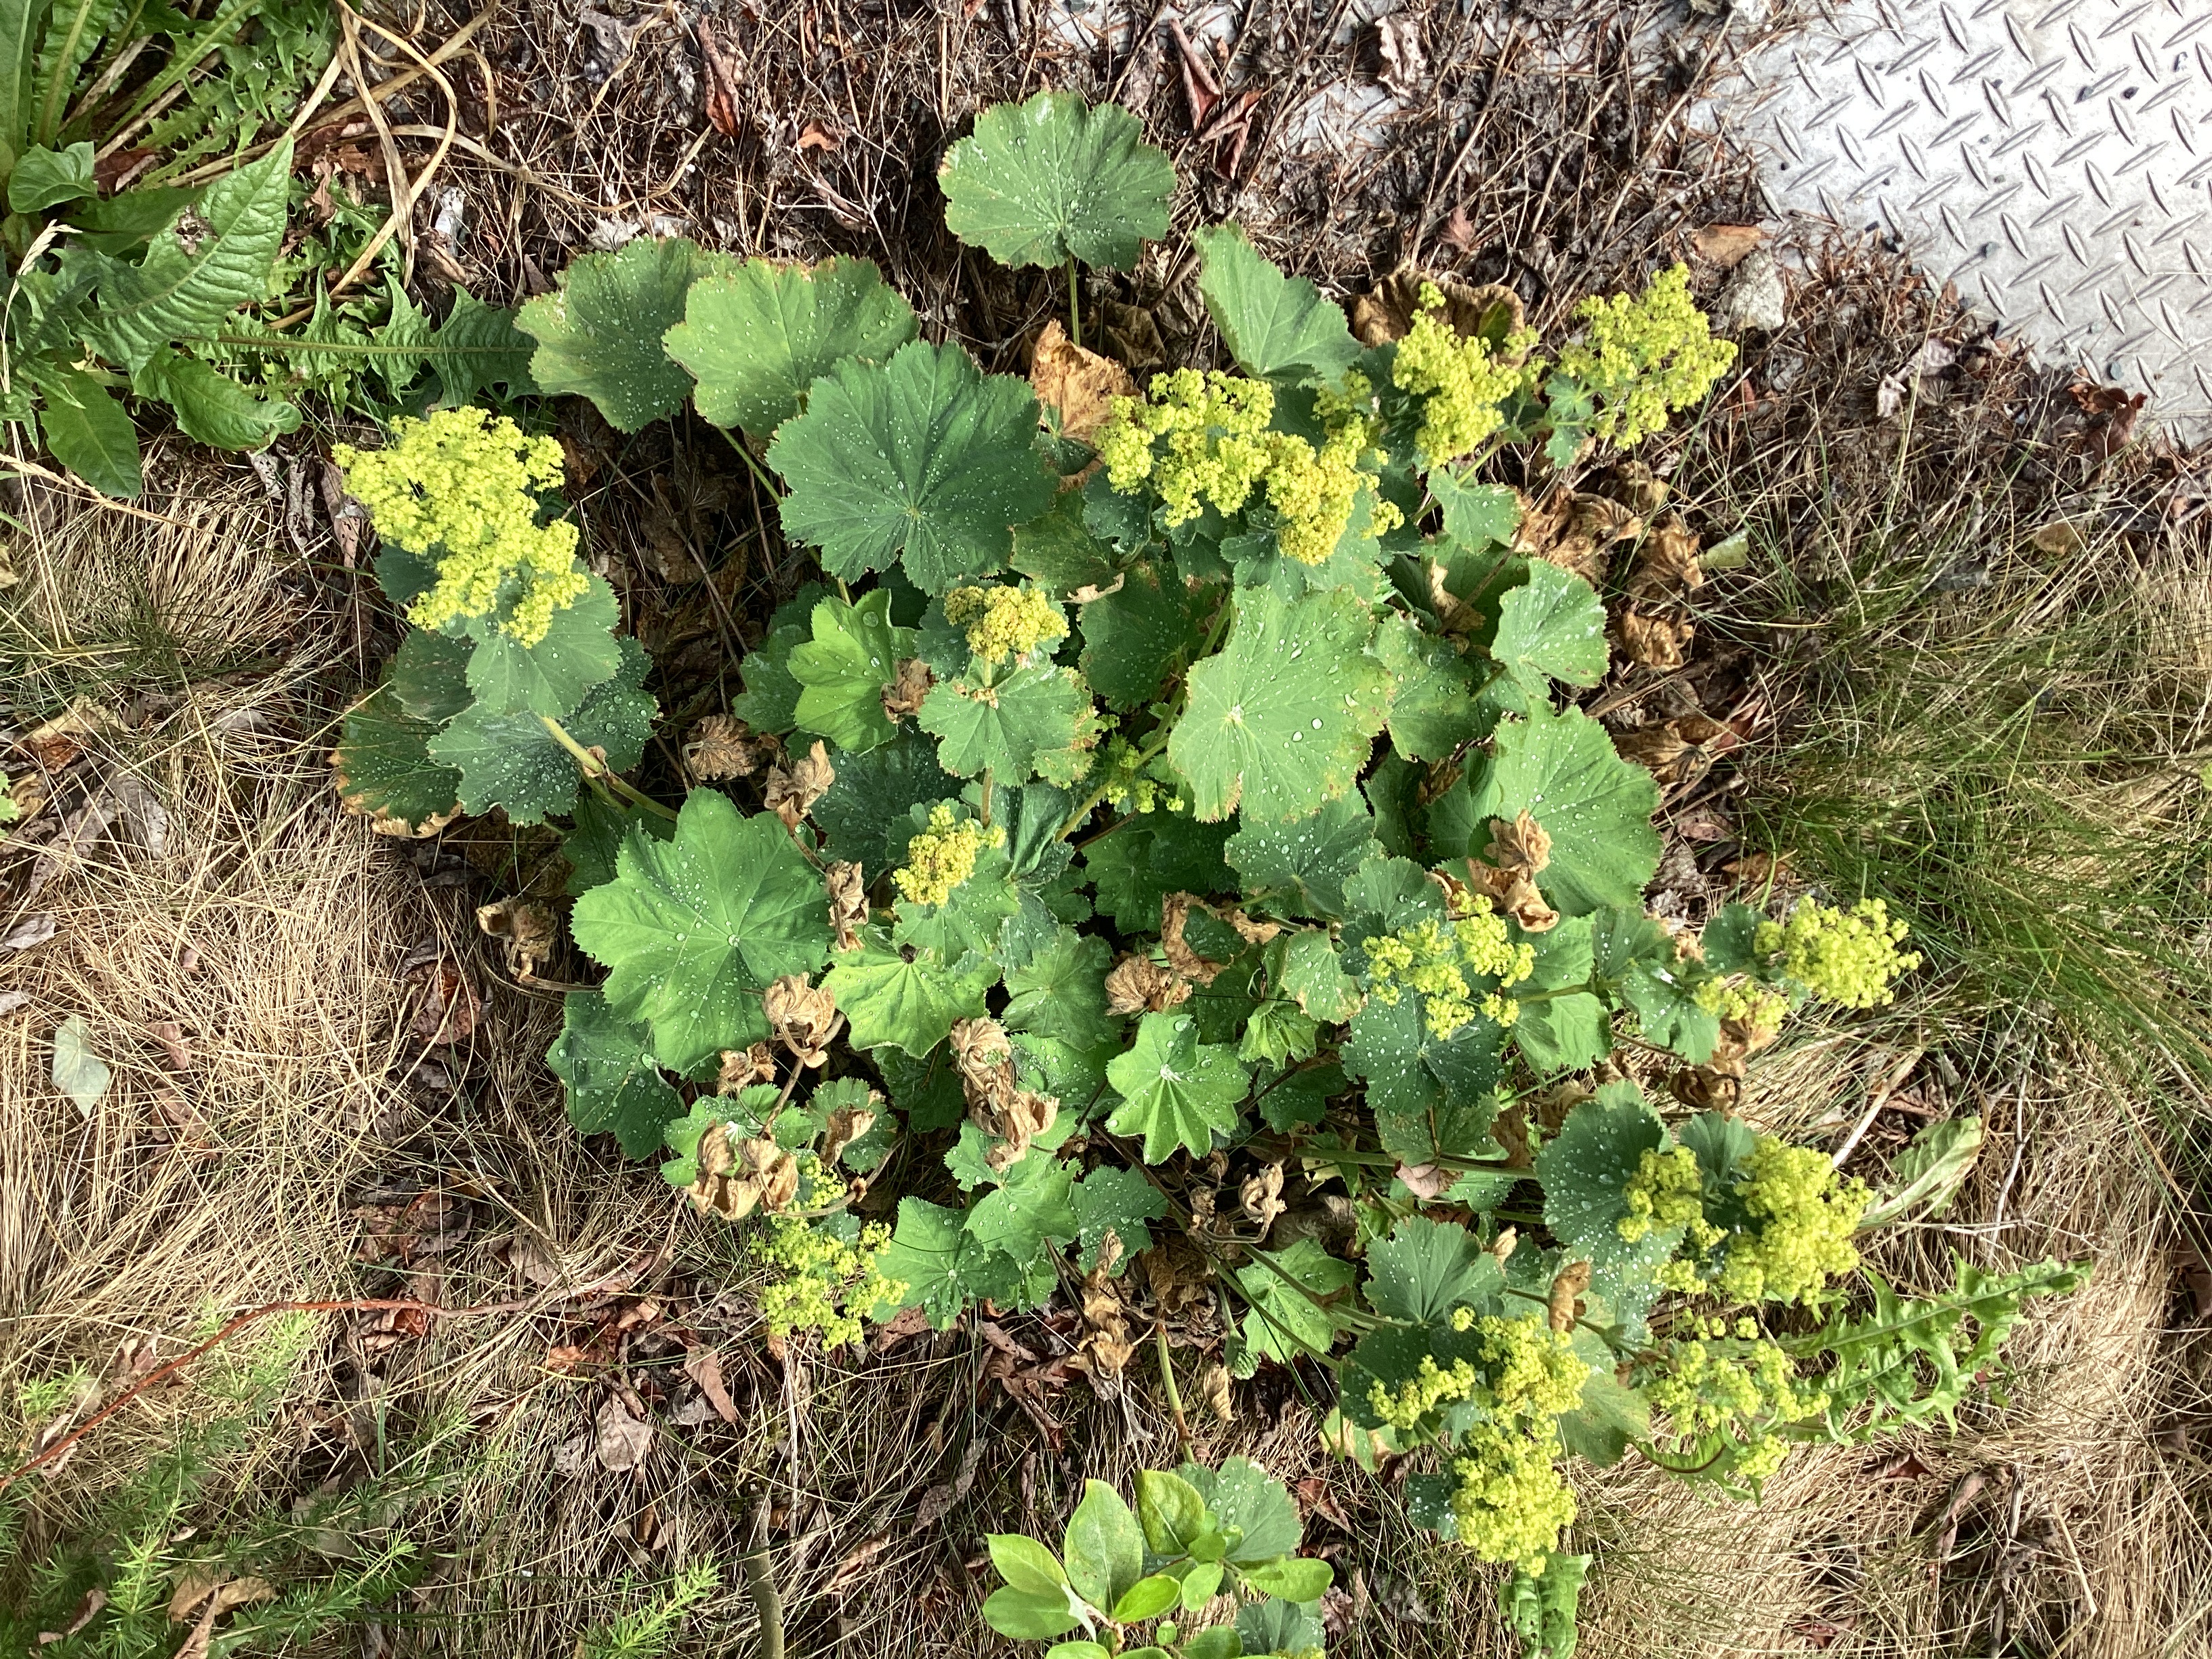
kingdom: Plantae
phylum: Tracheophyta
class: Magnoliopsida
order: Rosales
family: Rosaceae
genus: Alchemilla
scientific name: Alchemilla mollis
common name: praktmarikåpe
